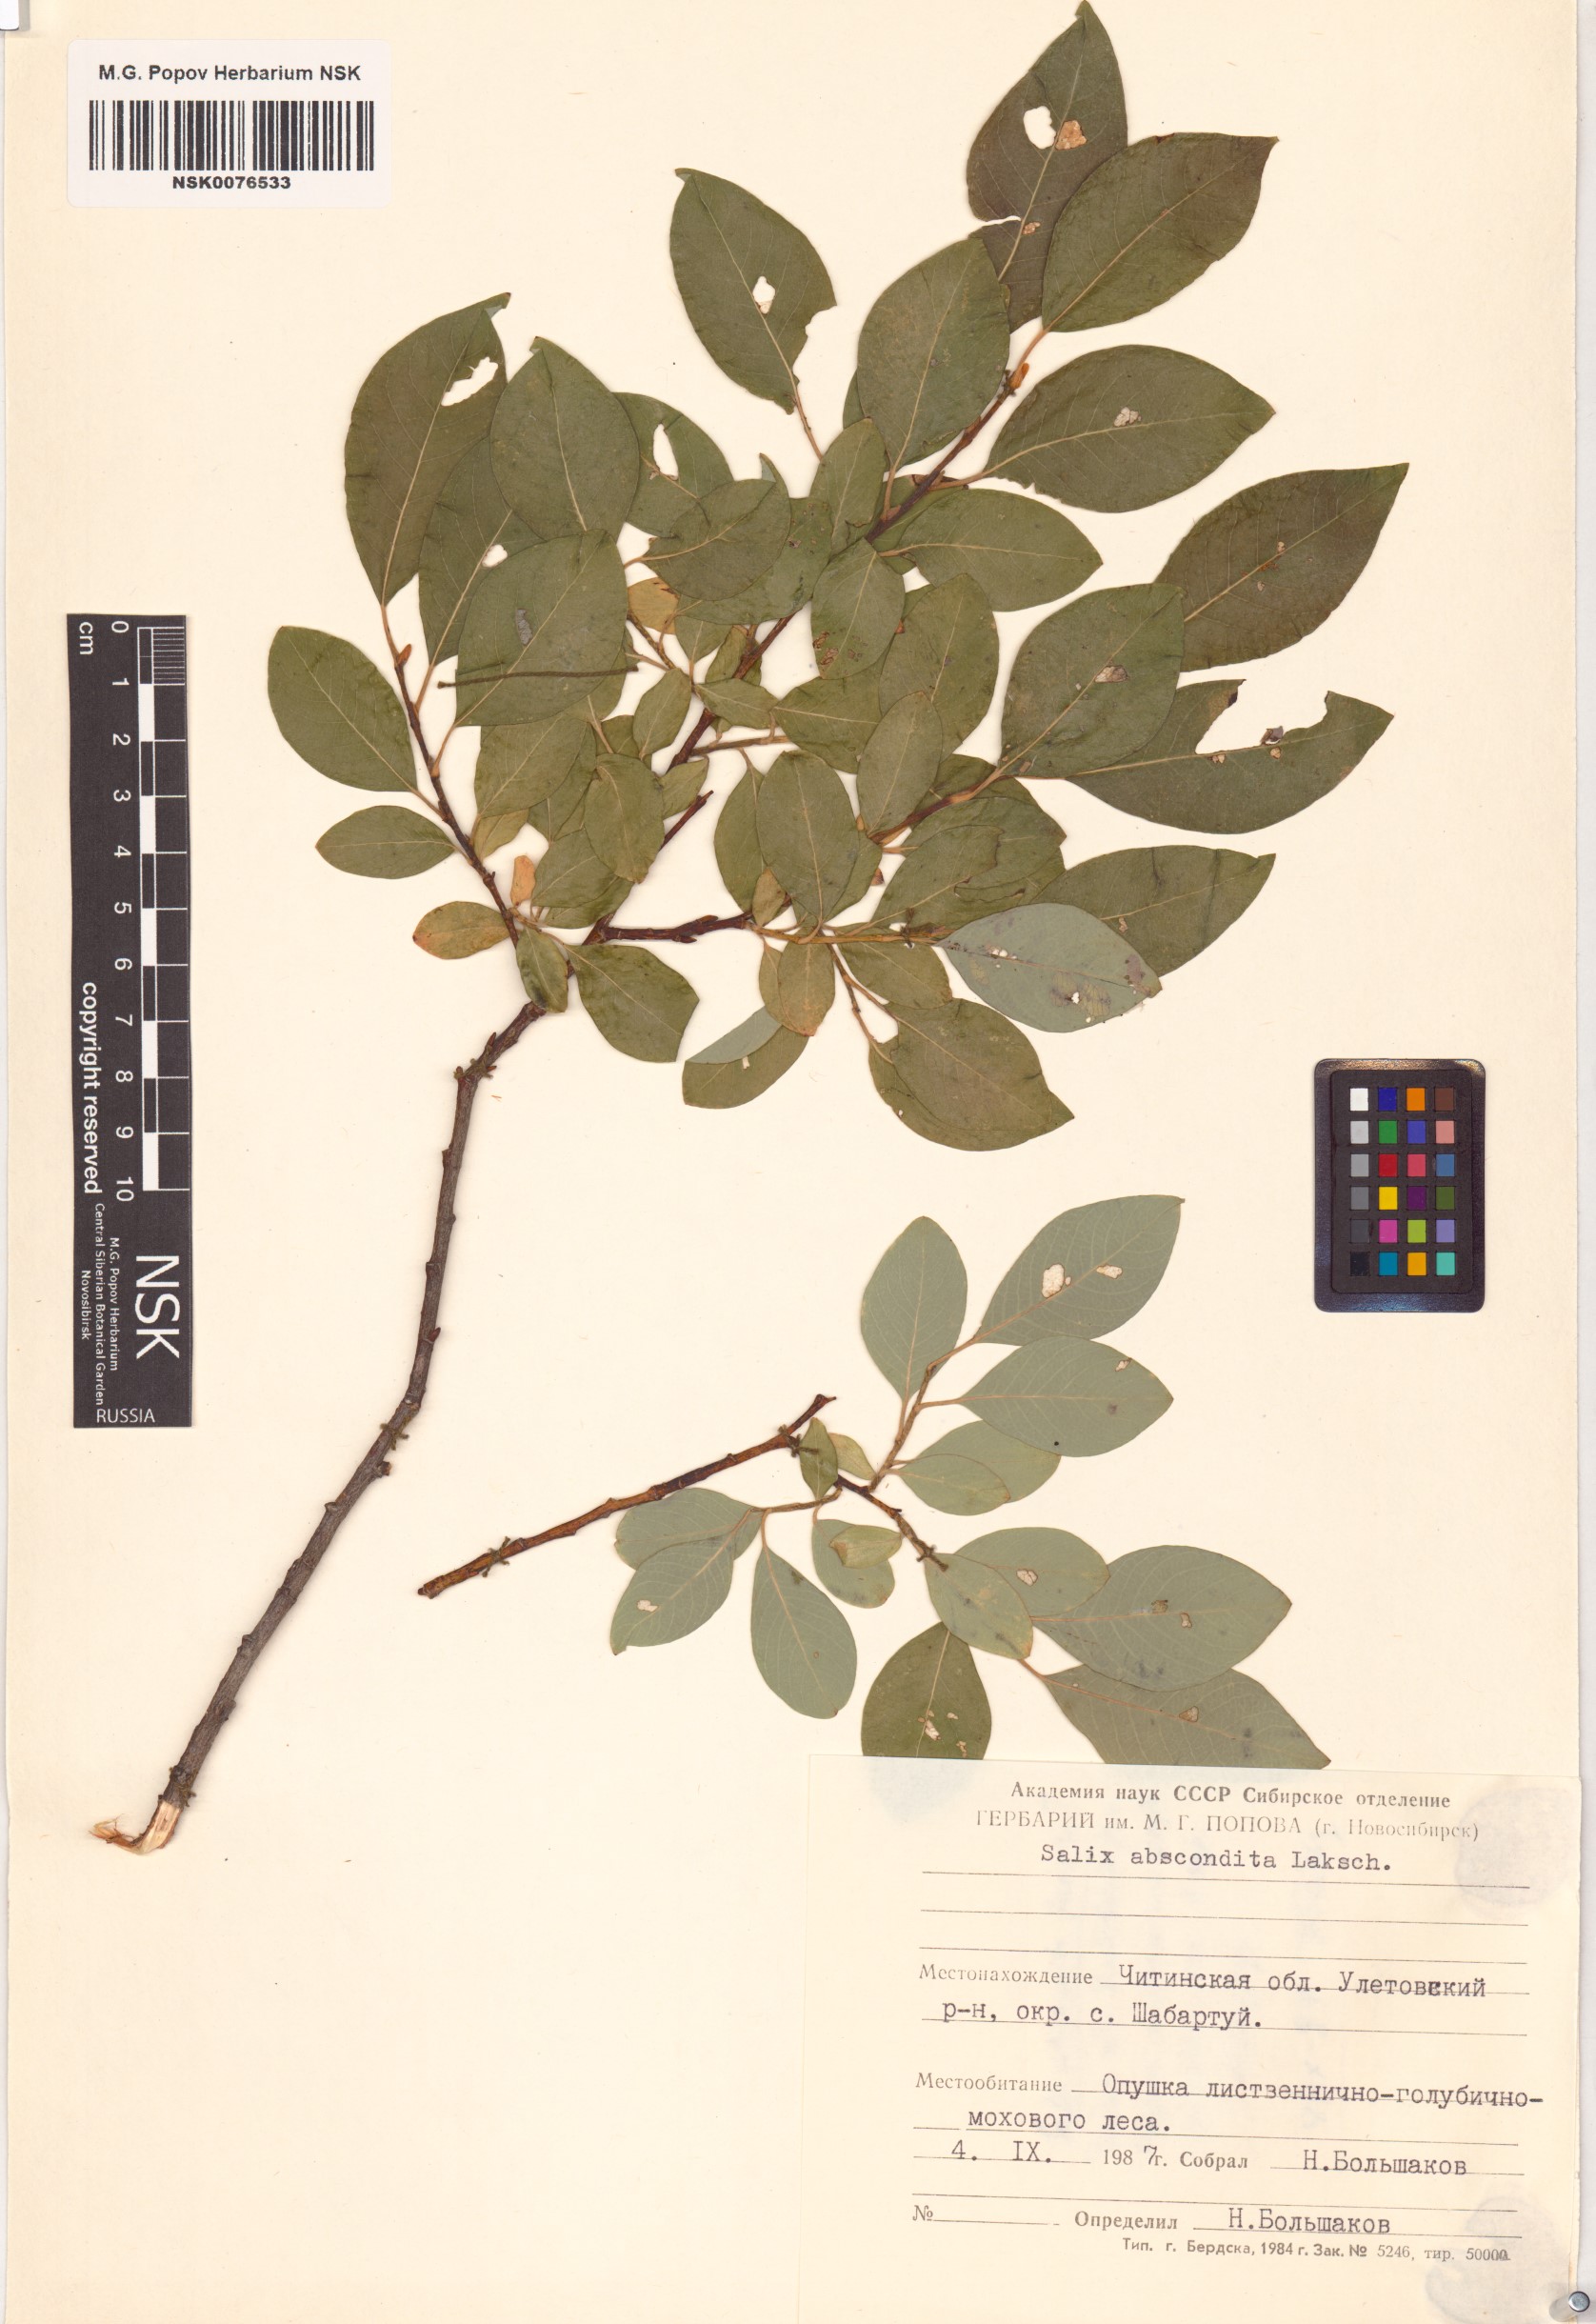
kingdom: Plantae
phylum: Tracheophyta
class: Magnoliopsida
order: Malpighiales
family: Salicaceae
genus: Salix
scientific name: Salix abscondita
